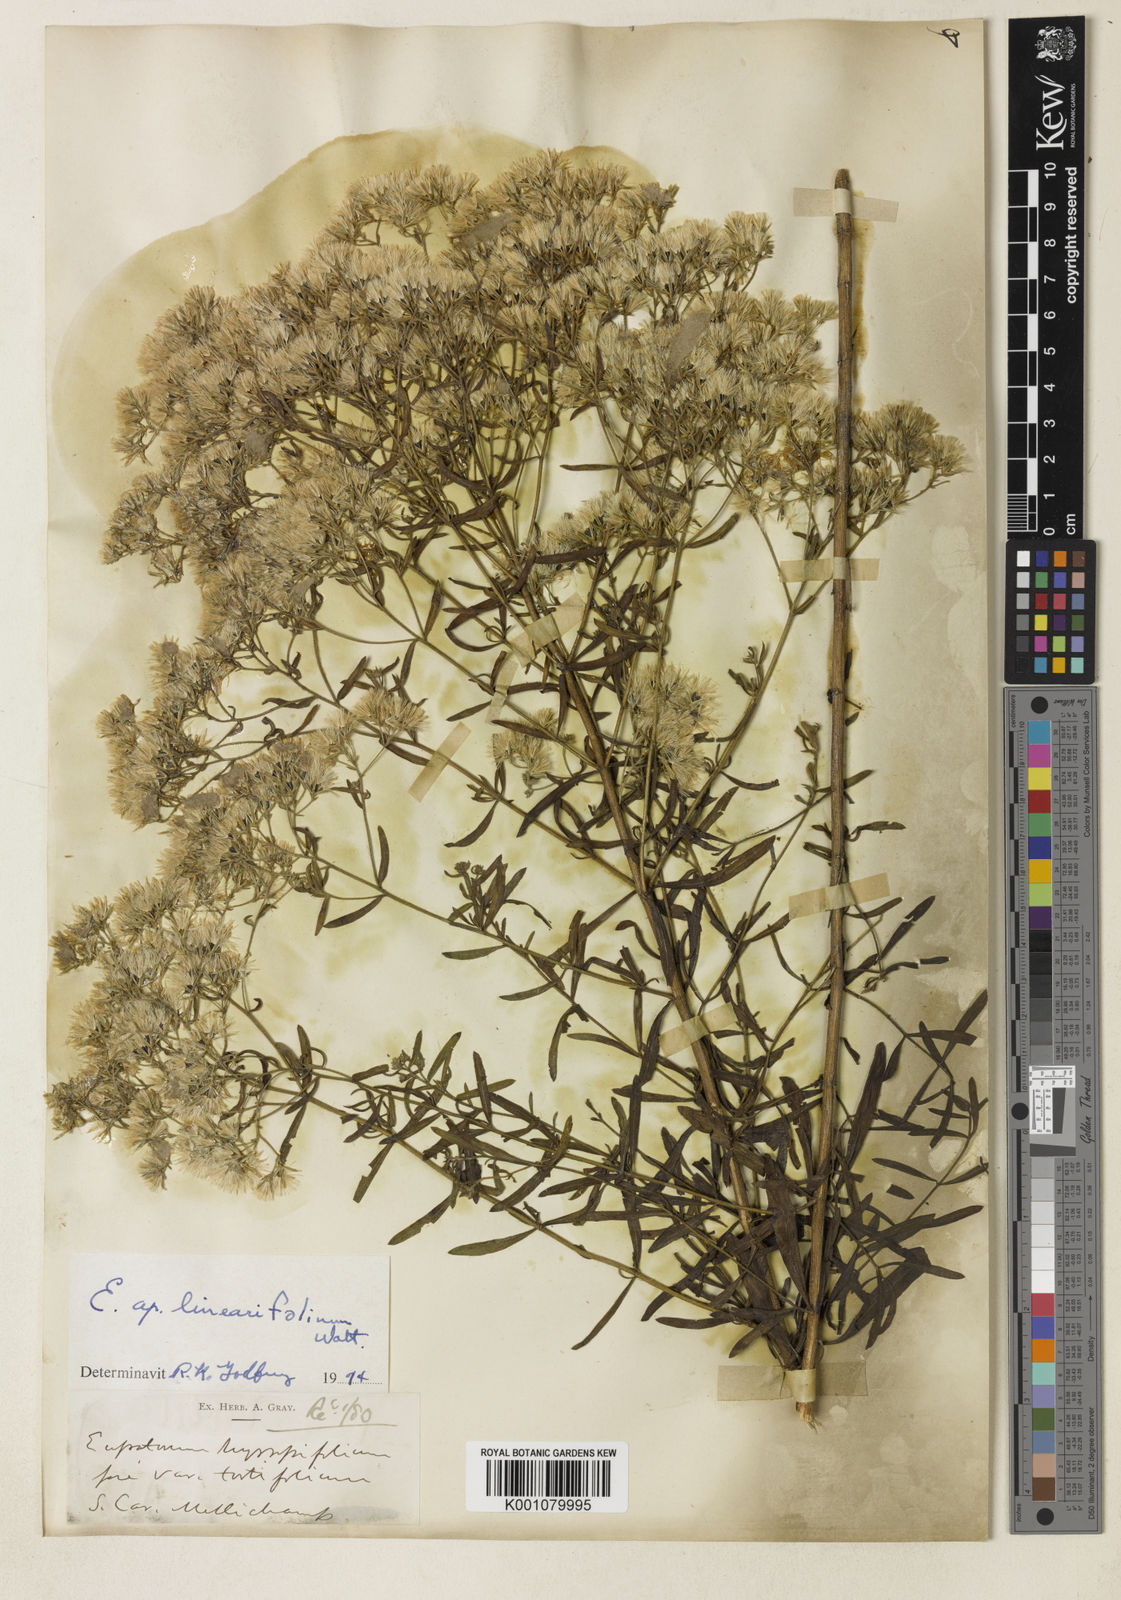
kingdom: Plantae
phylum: Tracheophyta
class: Magnoliopsida
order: Asterales
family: Asteraceae
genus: Eupatorium
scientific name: Eupatorium hyssopifolium
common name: Hyssop-leaf thoroughwort
